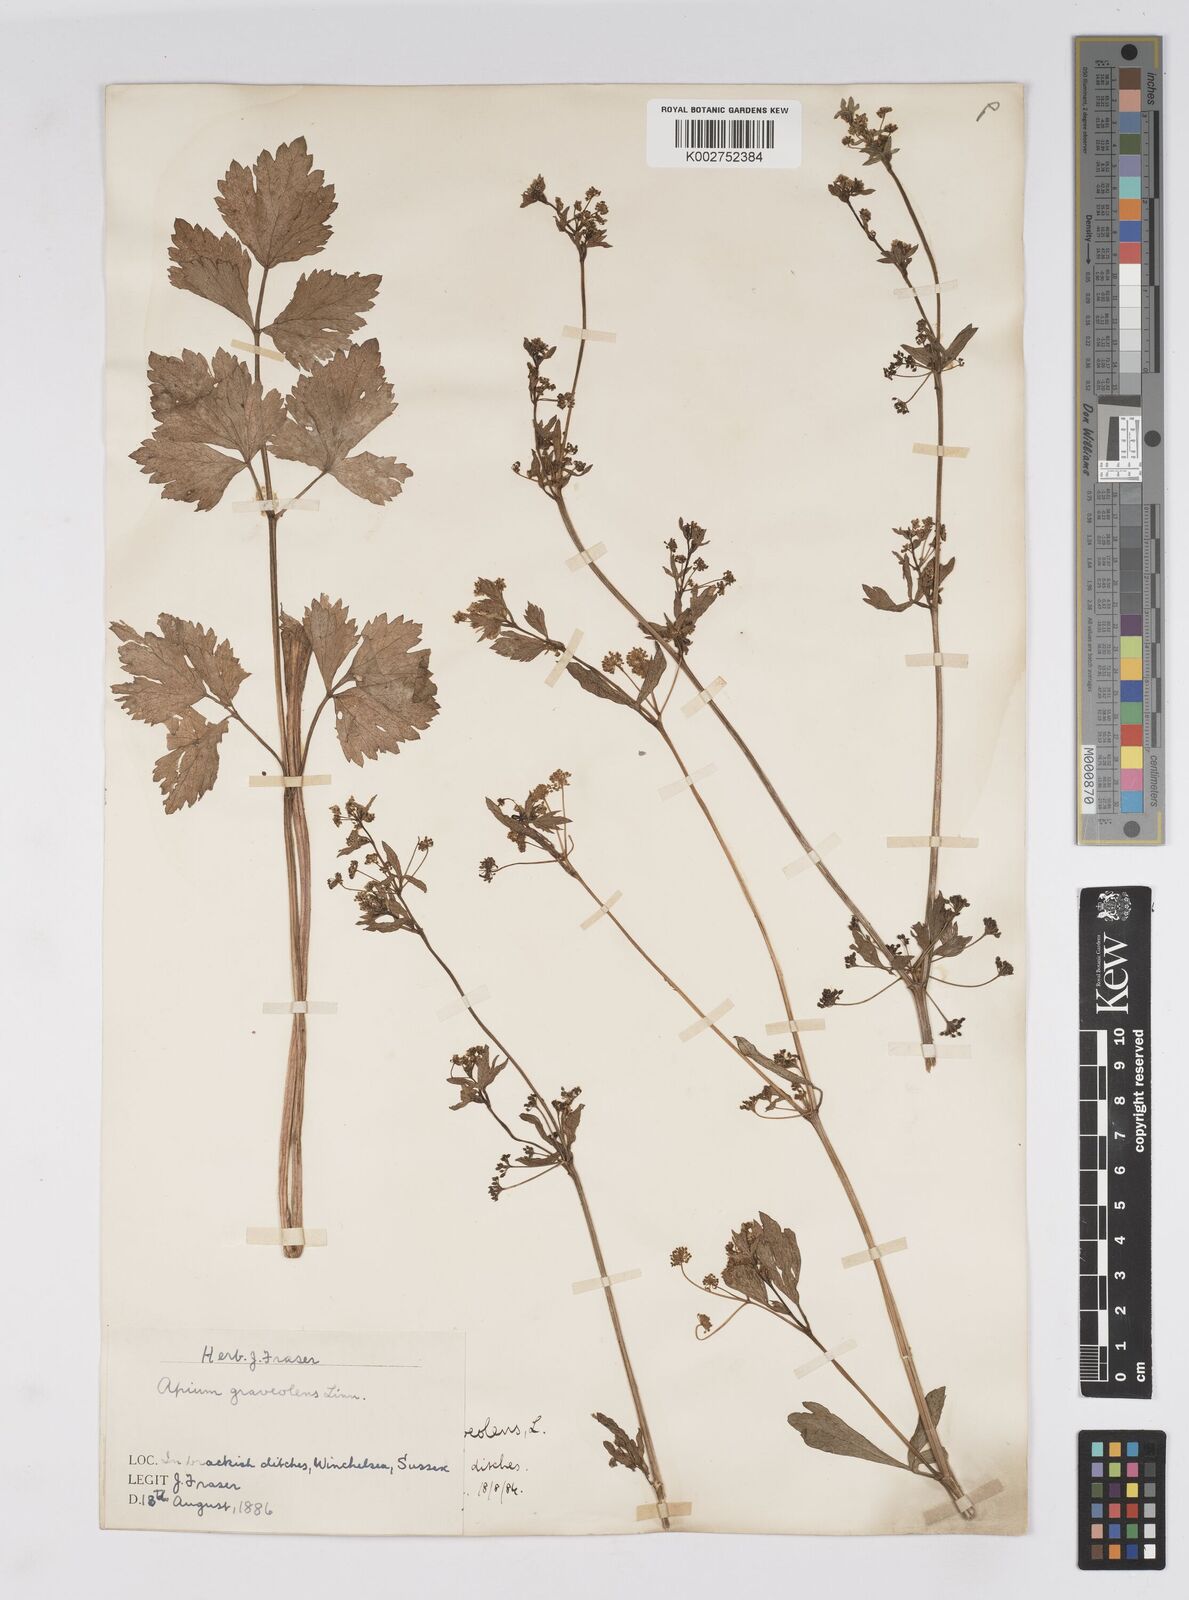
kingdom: Plantae
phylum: Tracheophyta
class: Magnoliopsida
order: Apiales
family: Apiaceae
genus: Apium
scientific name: Apium graveolens
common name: Wild celery
